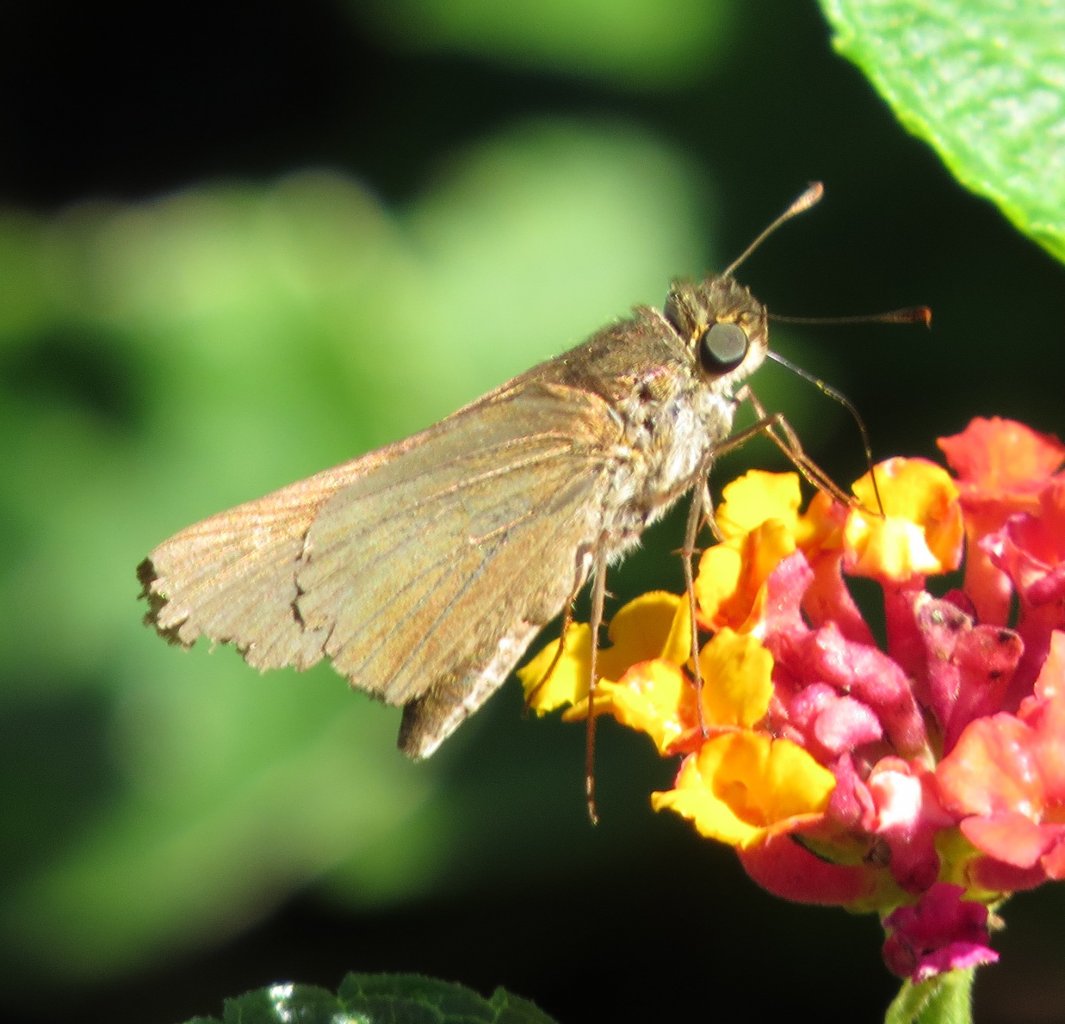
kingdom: Animalia
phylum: Arthropoda
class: Insecta
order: Lepidoptera
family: Hesperiidae
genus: Panoquina
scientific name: Panoquina ocola
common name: Ocola Skipper
